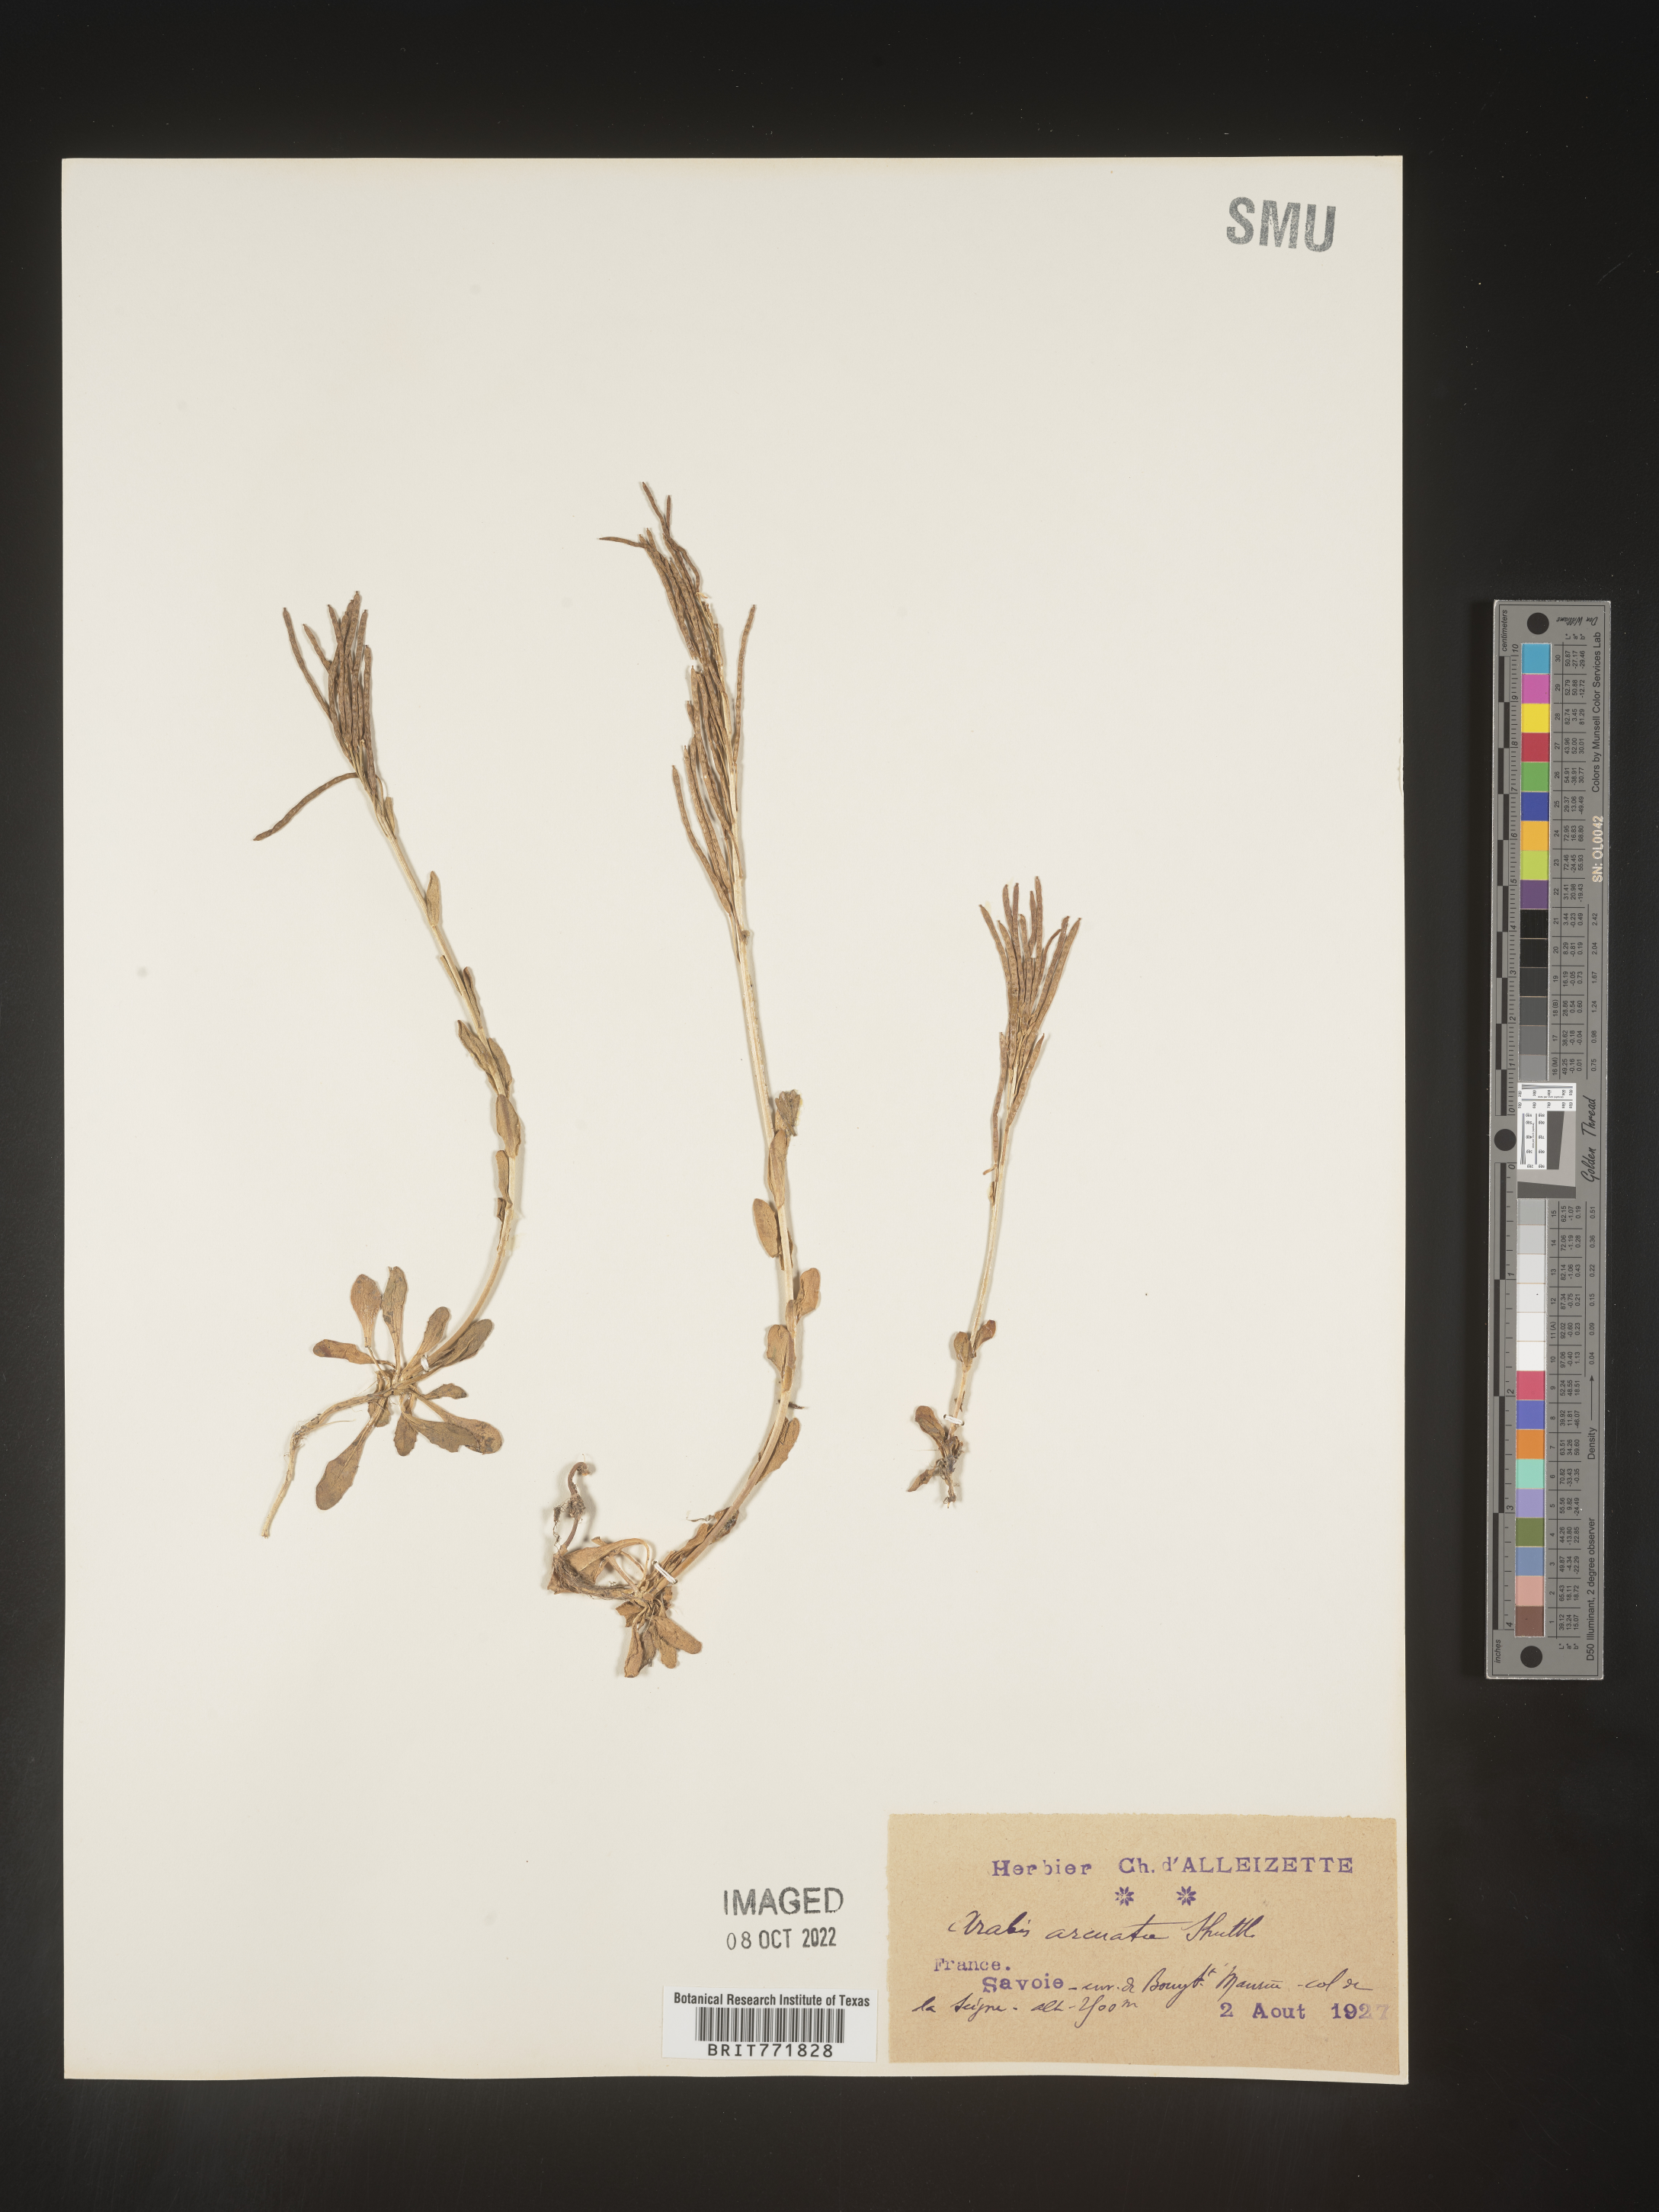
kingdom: Plantae
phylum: Tracheophyta
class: Magnoliopsida
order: Brassicales
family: Brassicaceae
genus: Arabis
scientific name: Arabis
